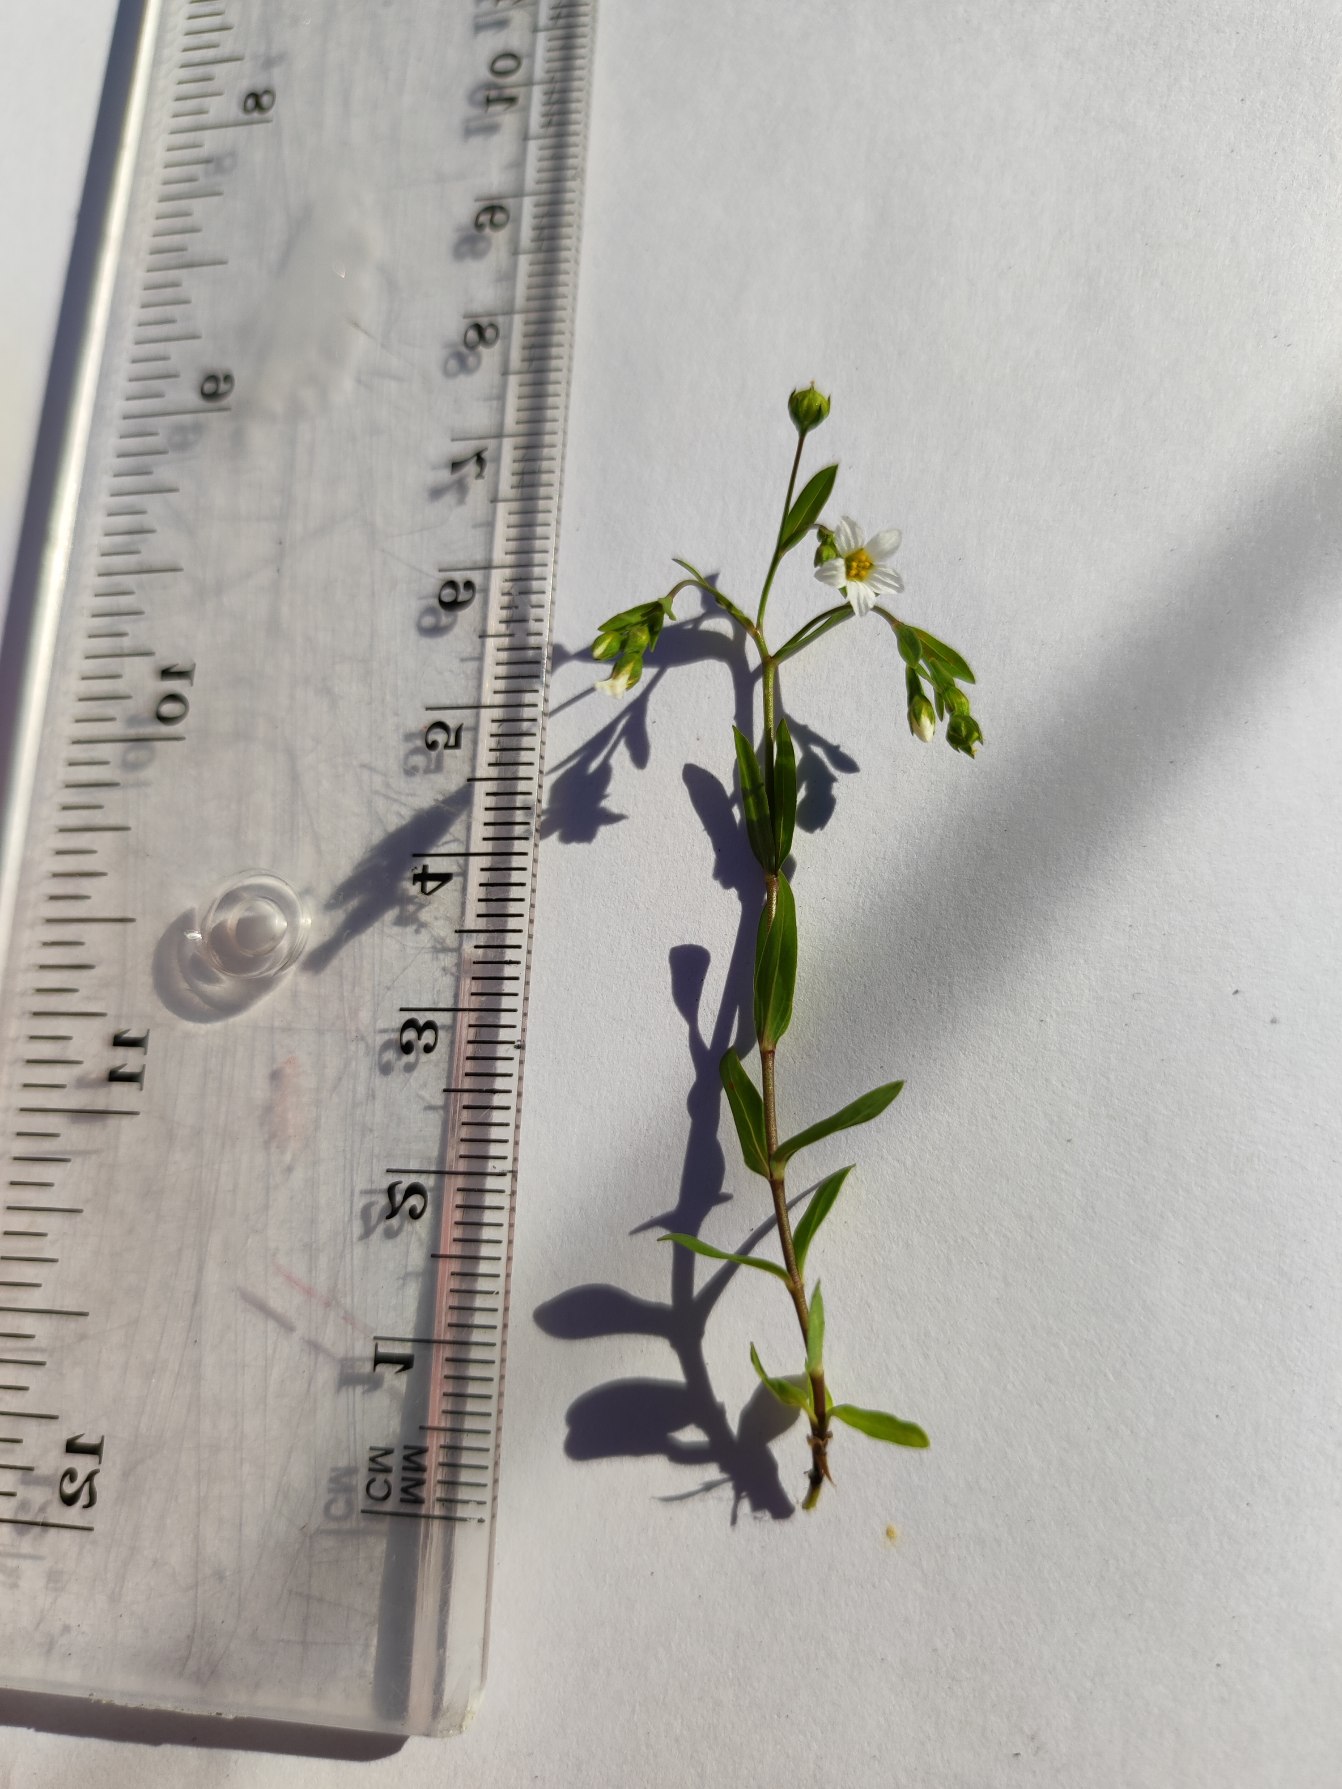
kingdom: Plantae
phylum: Tracheophyta
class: Magnoliopsida
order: Malpighiales
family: Linaceae
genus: Linum
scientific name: Linum catharticum
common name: Vild hør
